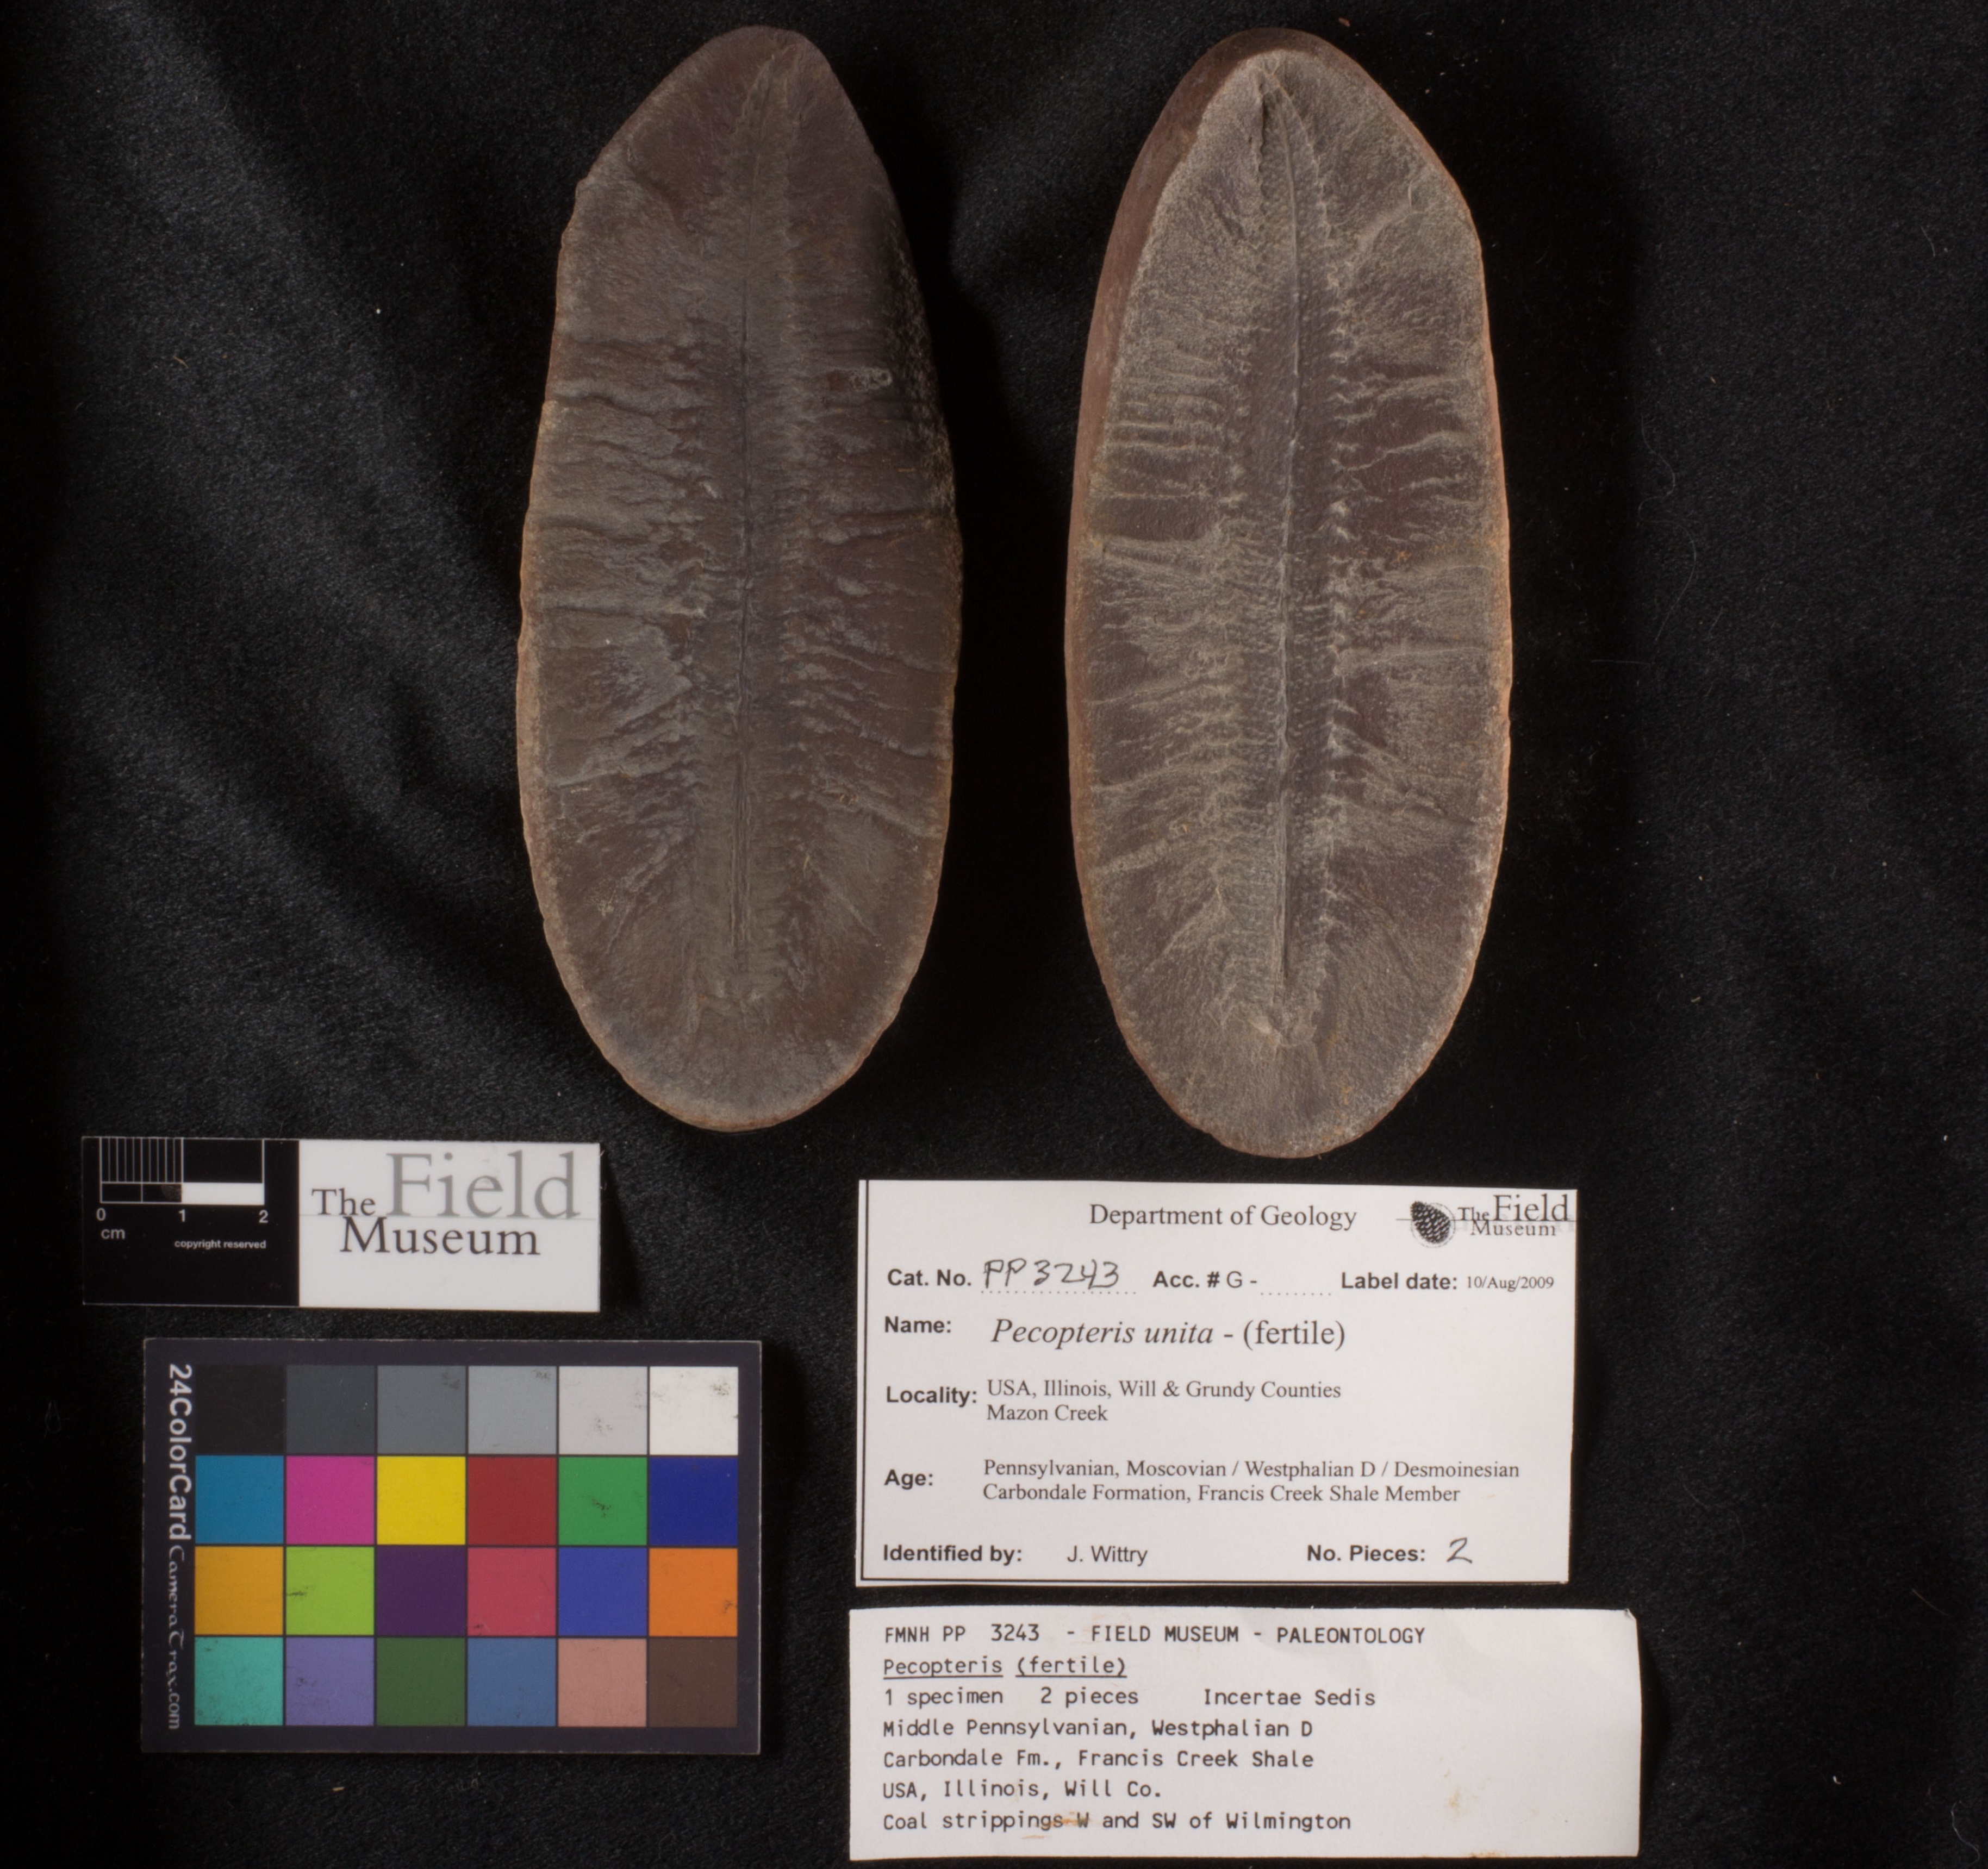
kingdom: Plantae
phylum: Tracheophyta
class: Polypodiopsida
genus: Diplazites
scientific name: Diplazites
